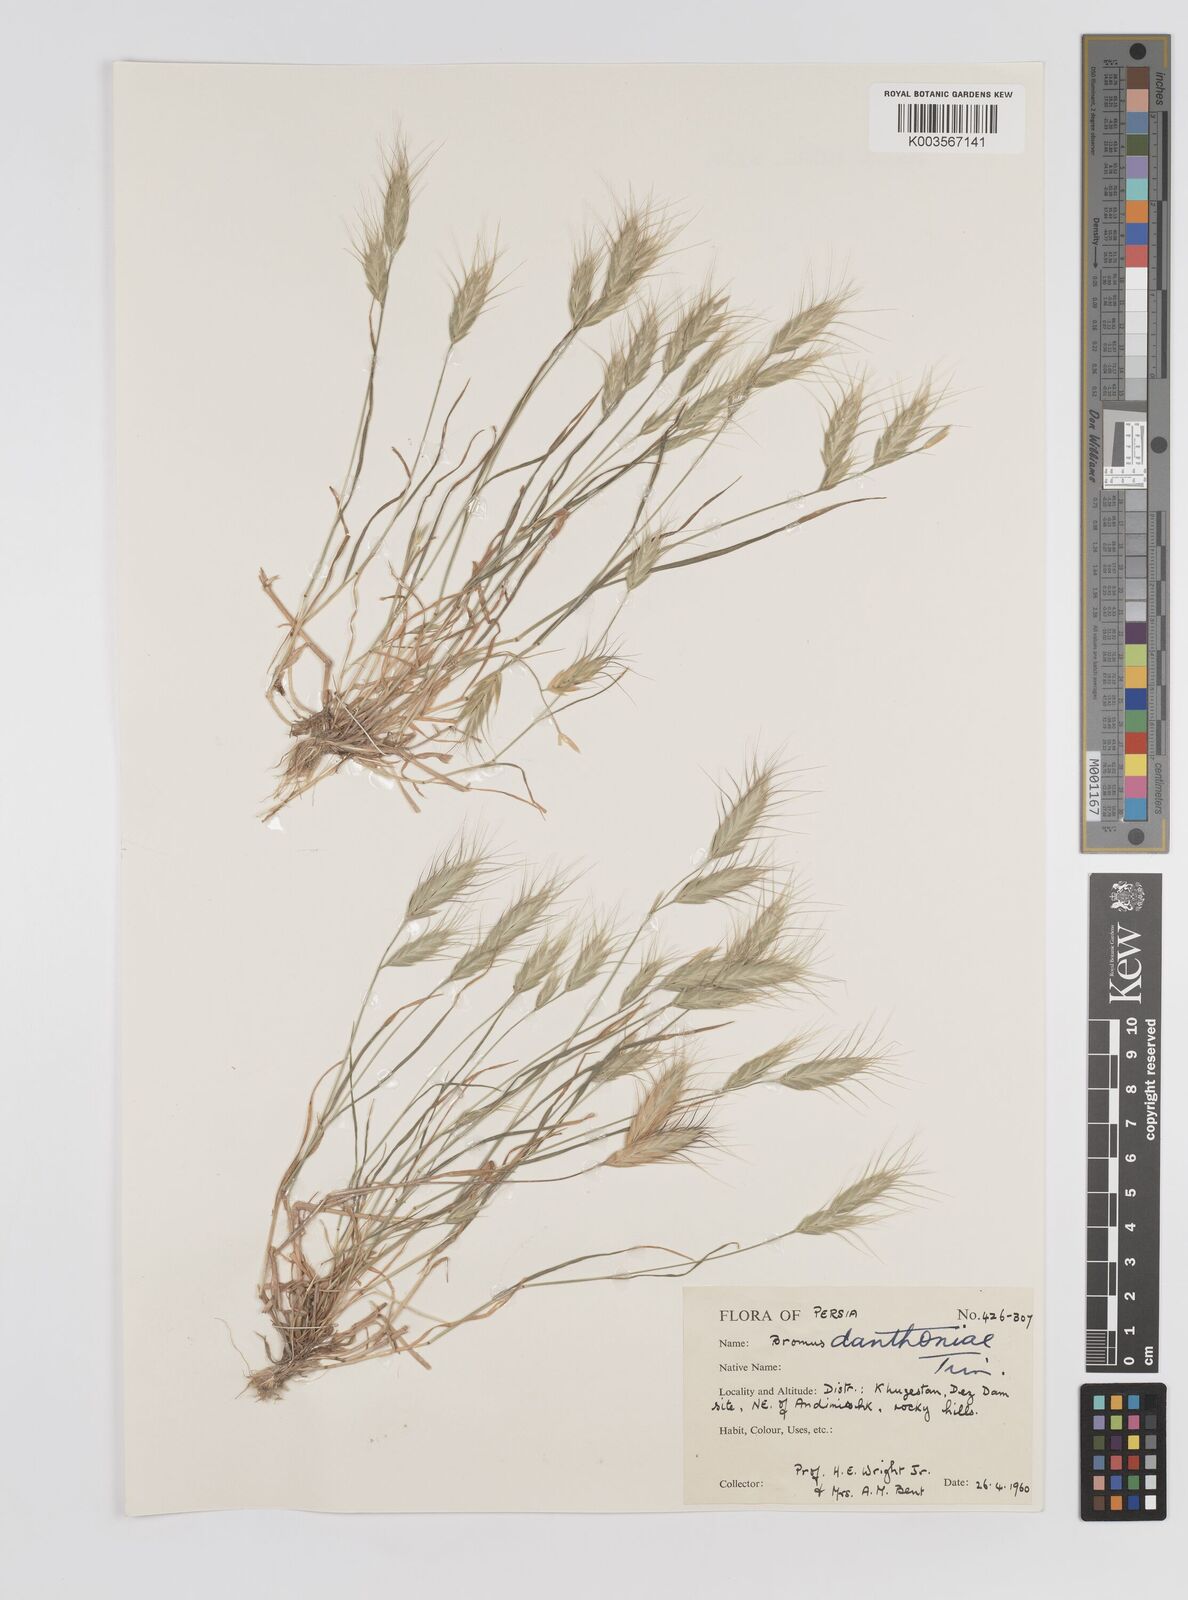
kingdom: Plantae
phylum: Tracheophyta
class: Liliopsida
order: Poales
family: Poaceae
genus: Bromus
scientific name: Bromus danthoniae
